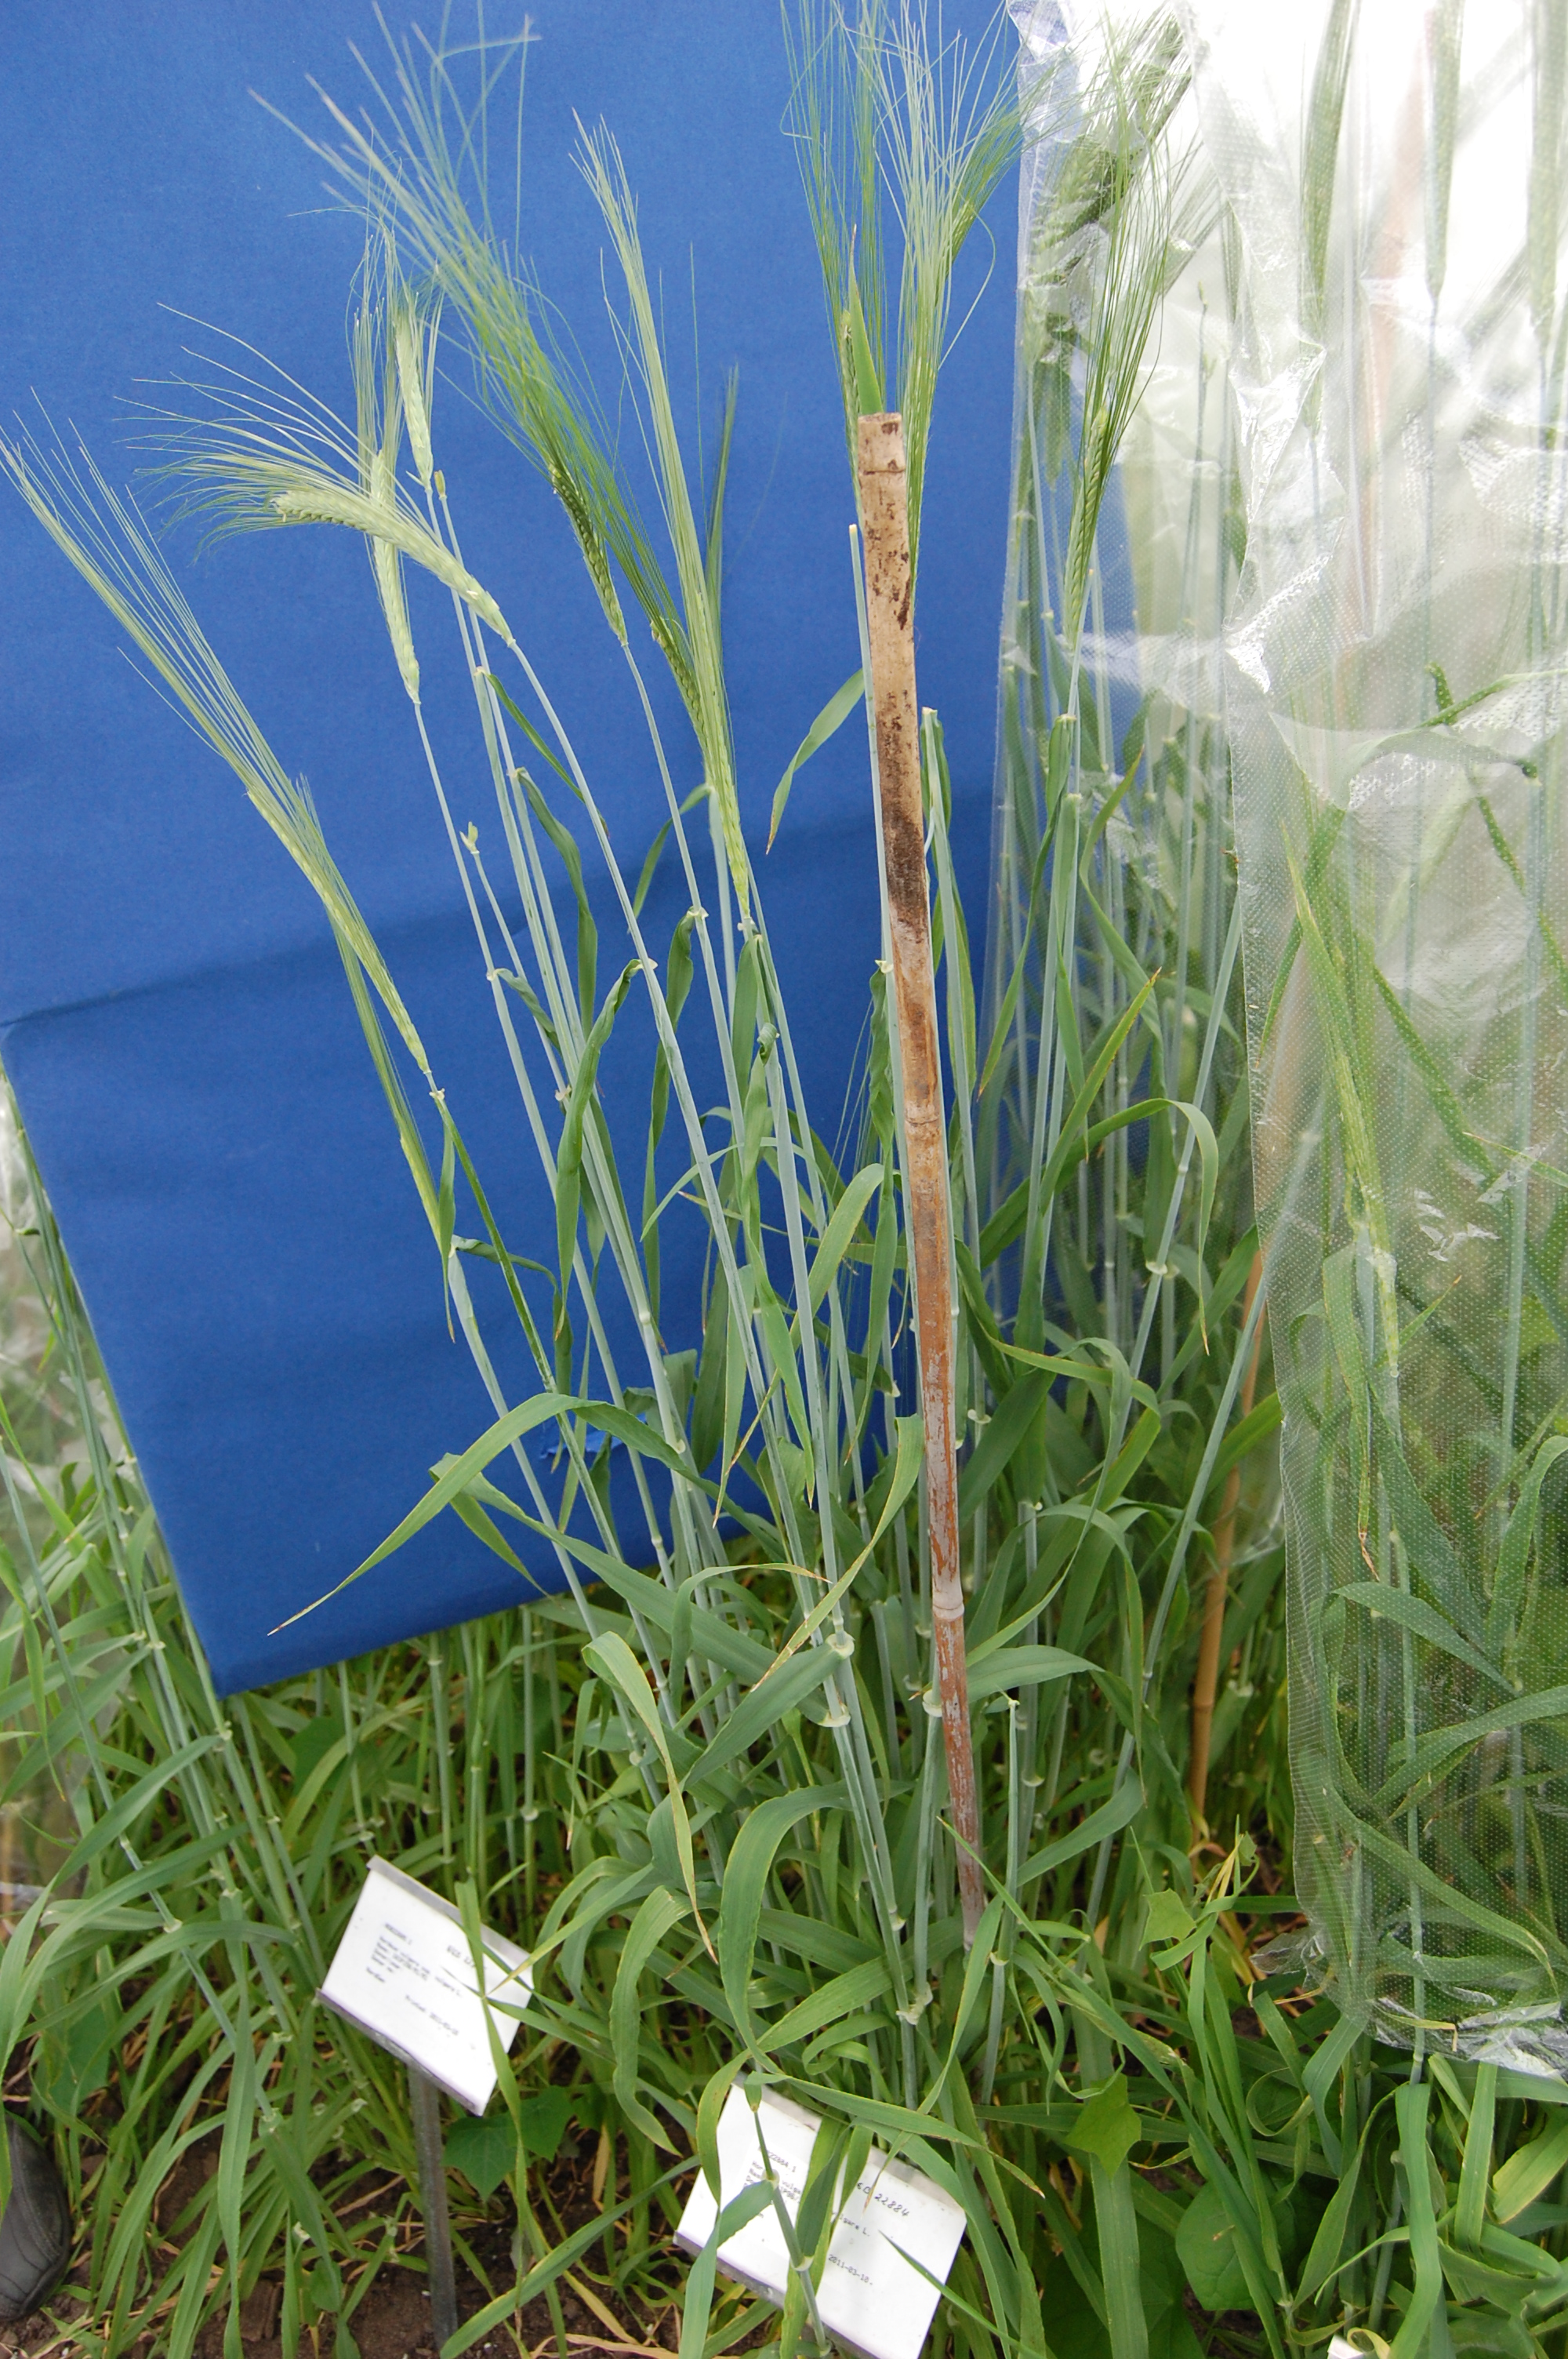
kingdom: Plantae
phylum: Tracheophyta
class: Liliopsida
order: Poales
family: Poaceae
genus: Hordeum
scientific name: Hordeum vulgare
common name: Common barley
